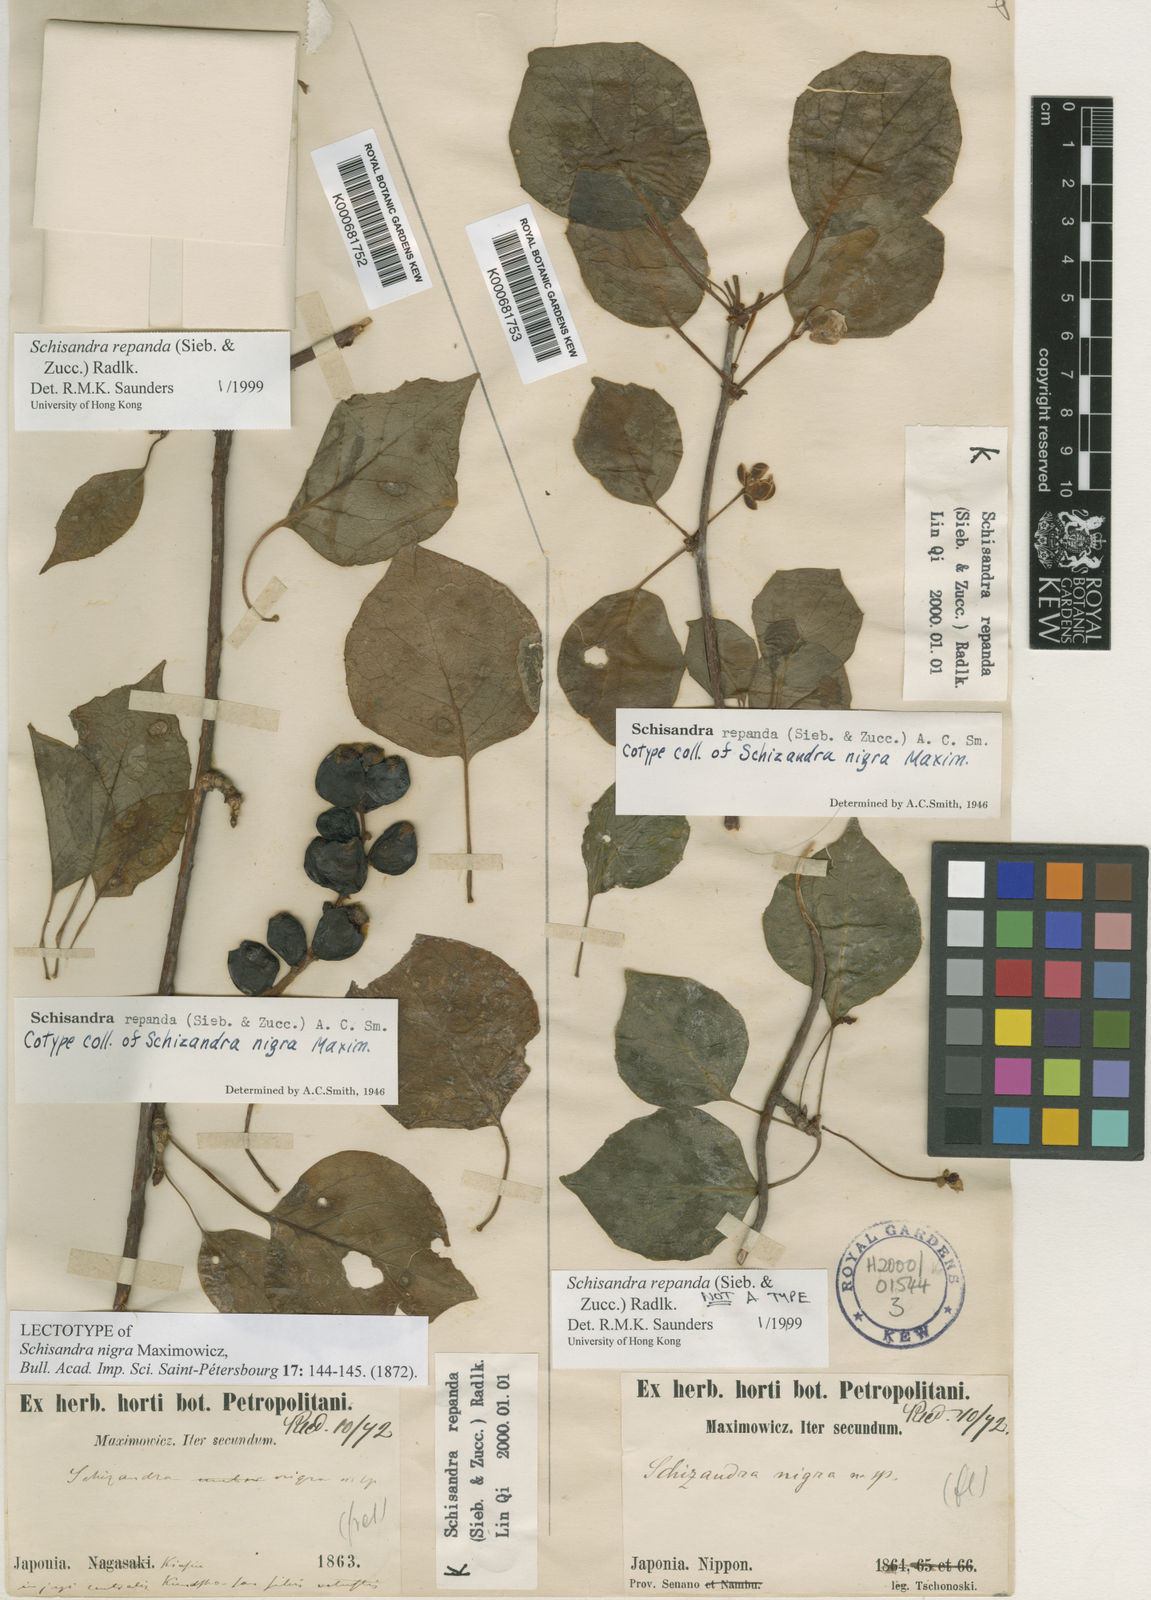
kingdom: Plantae
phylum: Tracheophyta
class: Magnoliopsida
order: Austrobaileyales
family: Schisandraceae
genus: Schisandra
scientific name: Schisandra repanda
